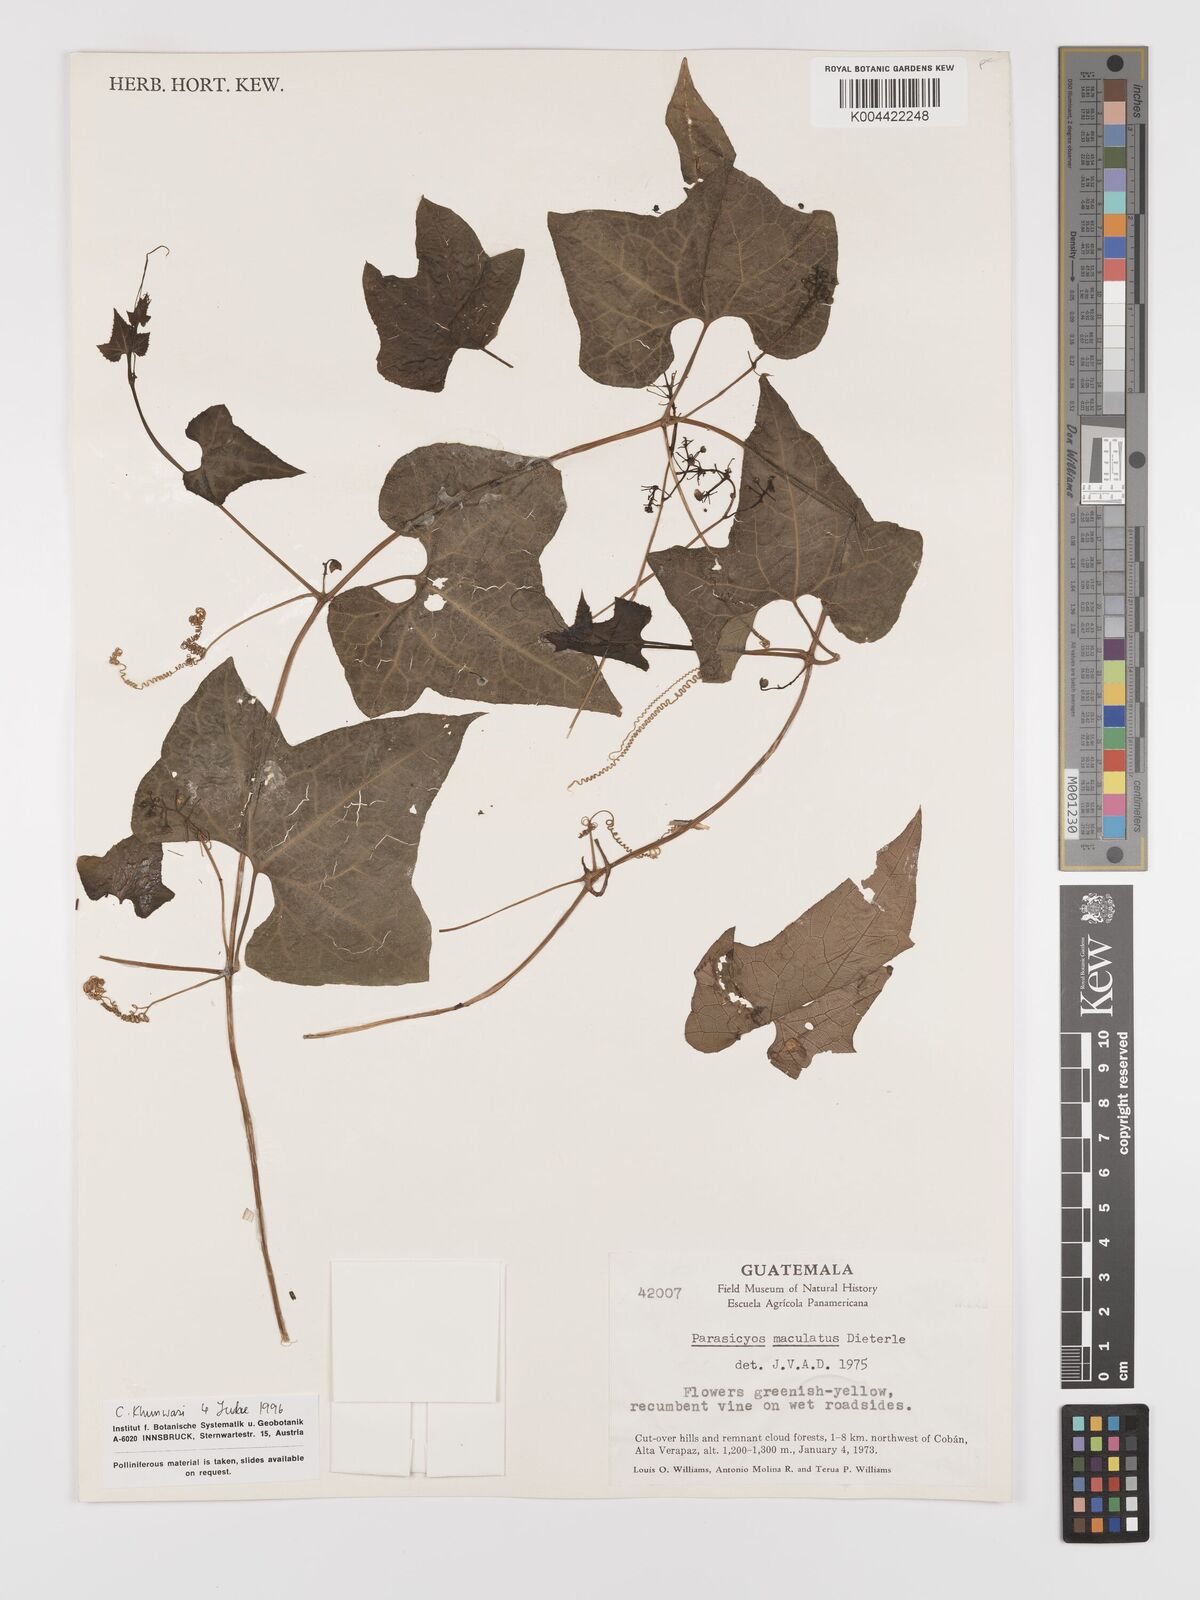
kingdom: Plantae
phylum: Tracheophyta
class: Magnoliopsida
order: Cucurbitales
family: Cucurbitaceae
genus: Parasicyos
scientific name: Parasicyos maculatus
